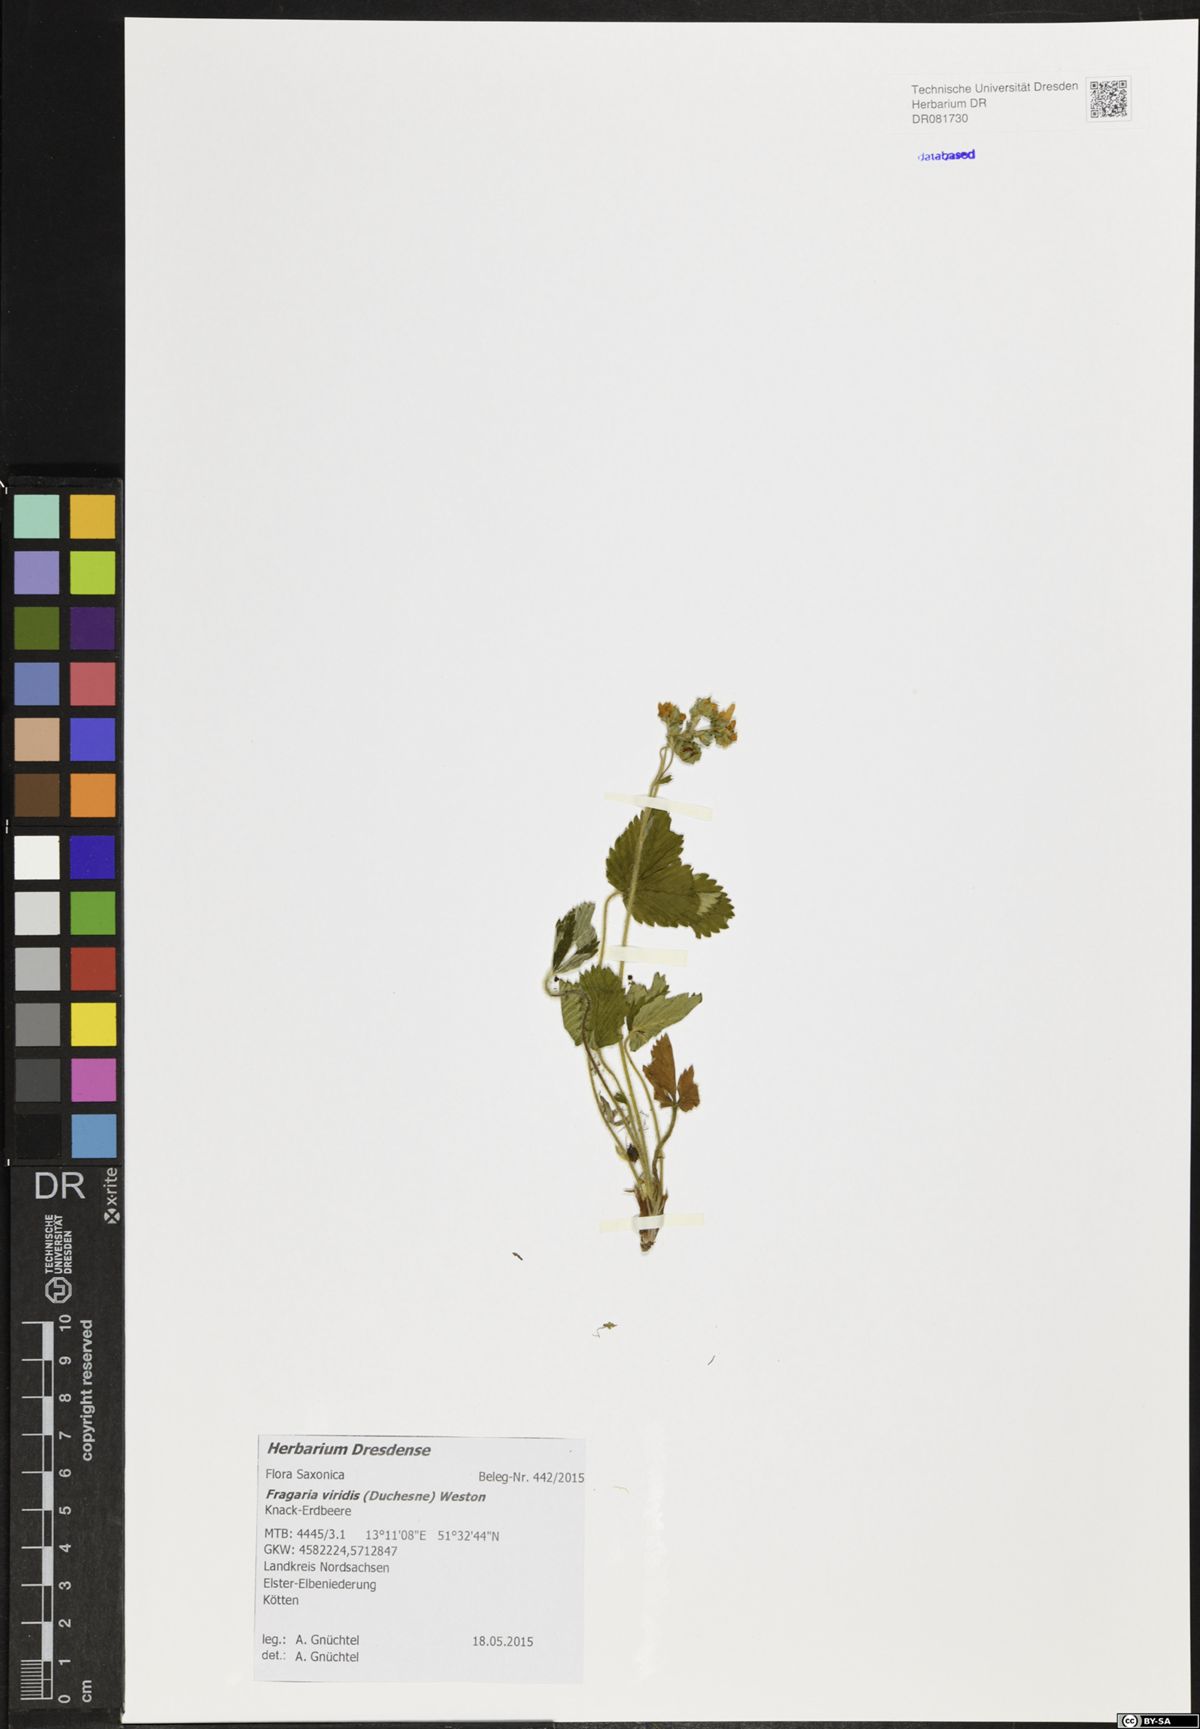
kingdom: Plantae
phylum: Tracheophyta
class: Magnoliopsida
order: Rosales
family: Rosaceae
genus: Fragaria
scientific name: Fragaria viridis
